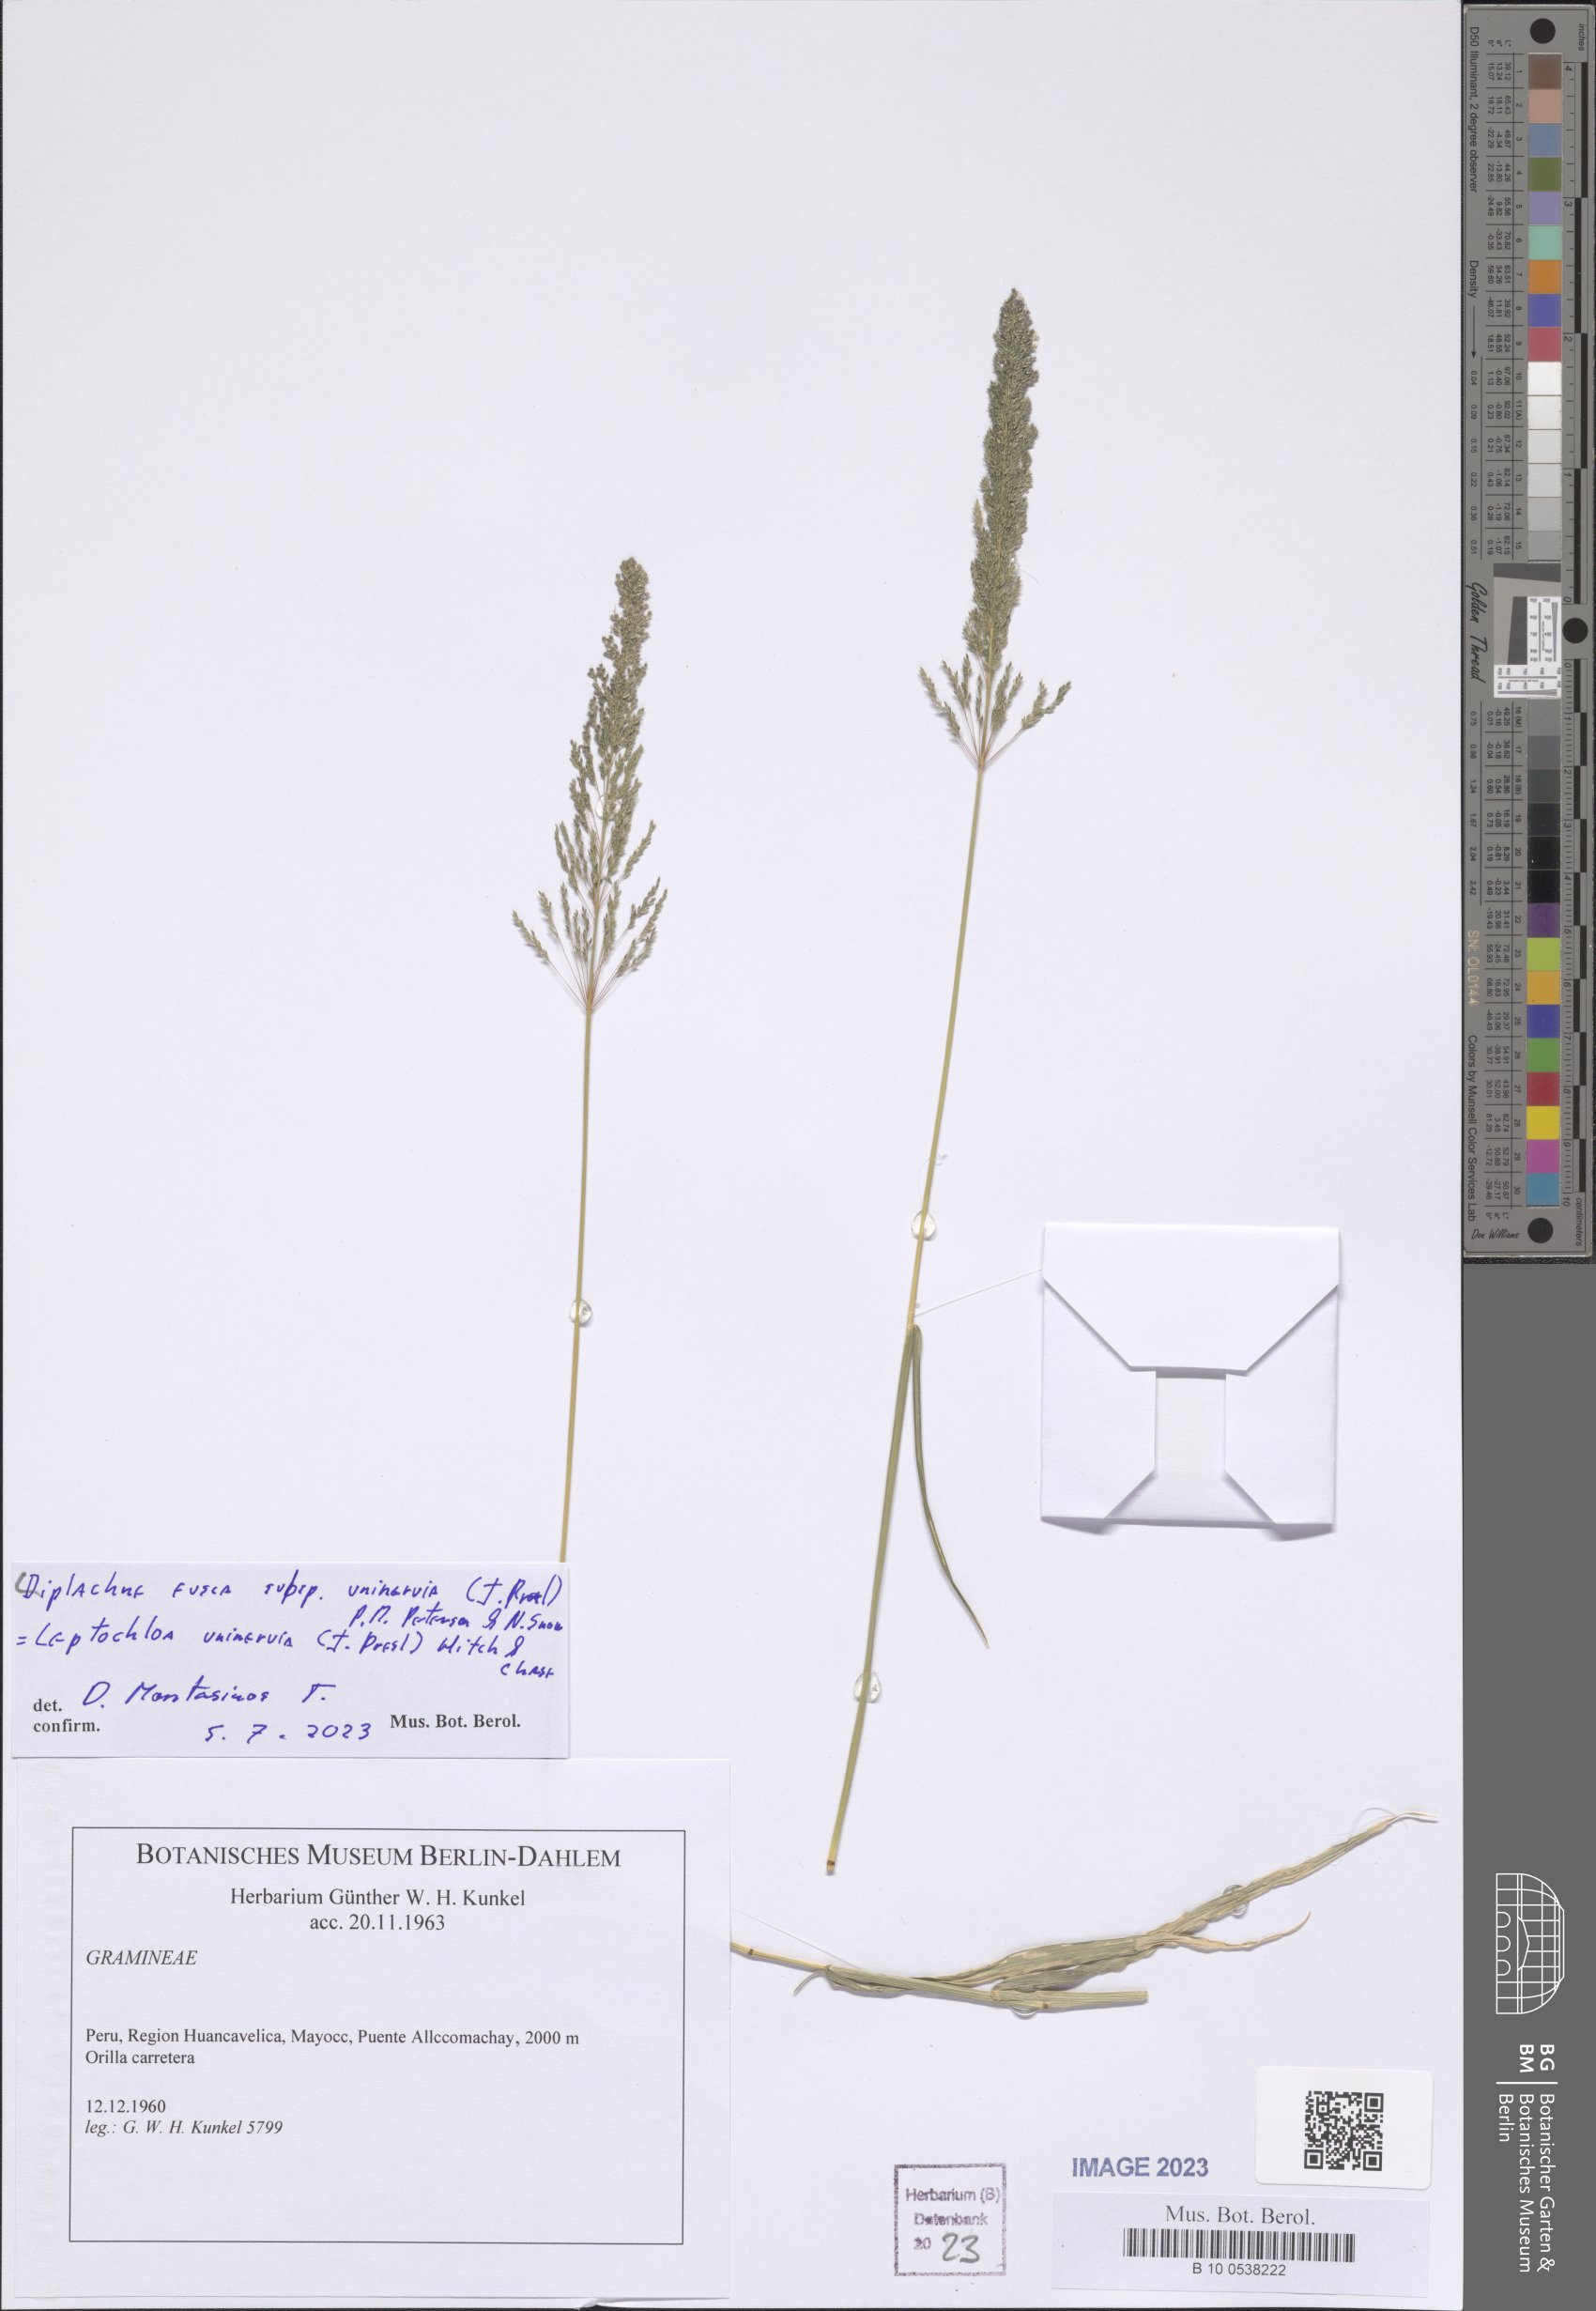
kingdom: Plantae
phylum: Tracheophyta
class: Liliopsida
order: Poales
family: Poaceae
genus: Diplachne
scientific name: Diplachne fusca
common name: Brown beetle grass
